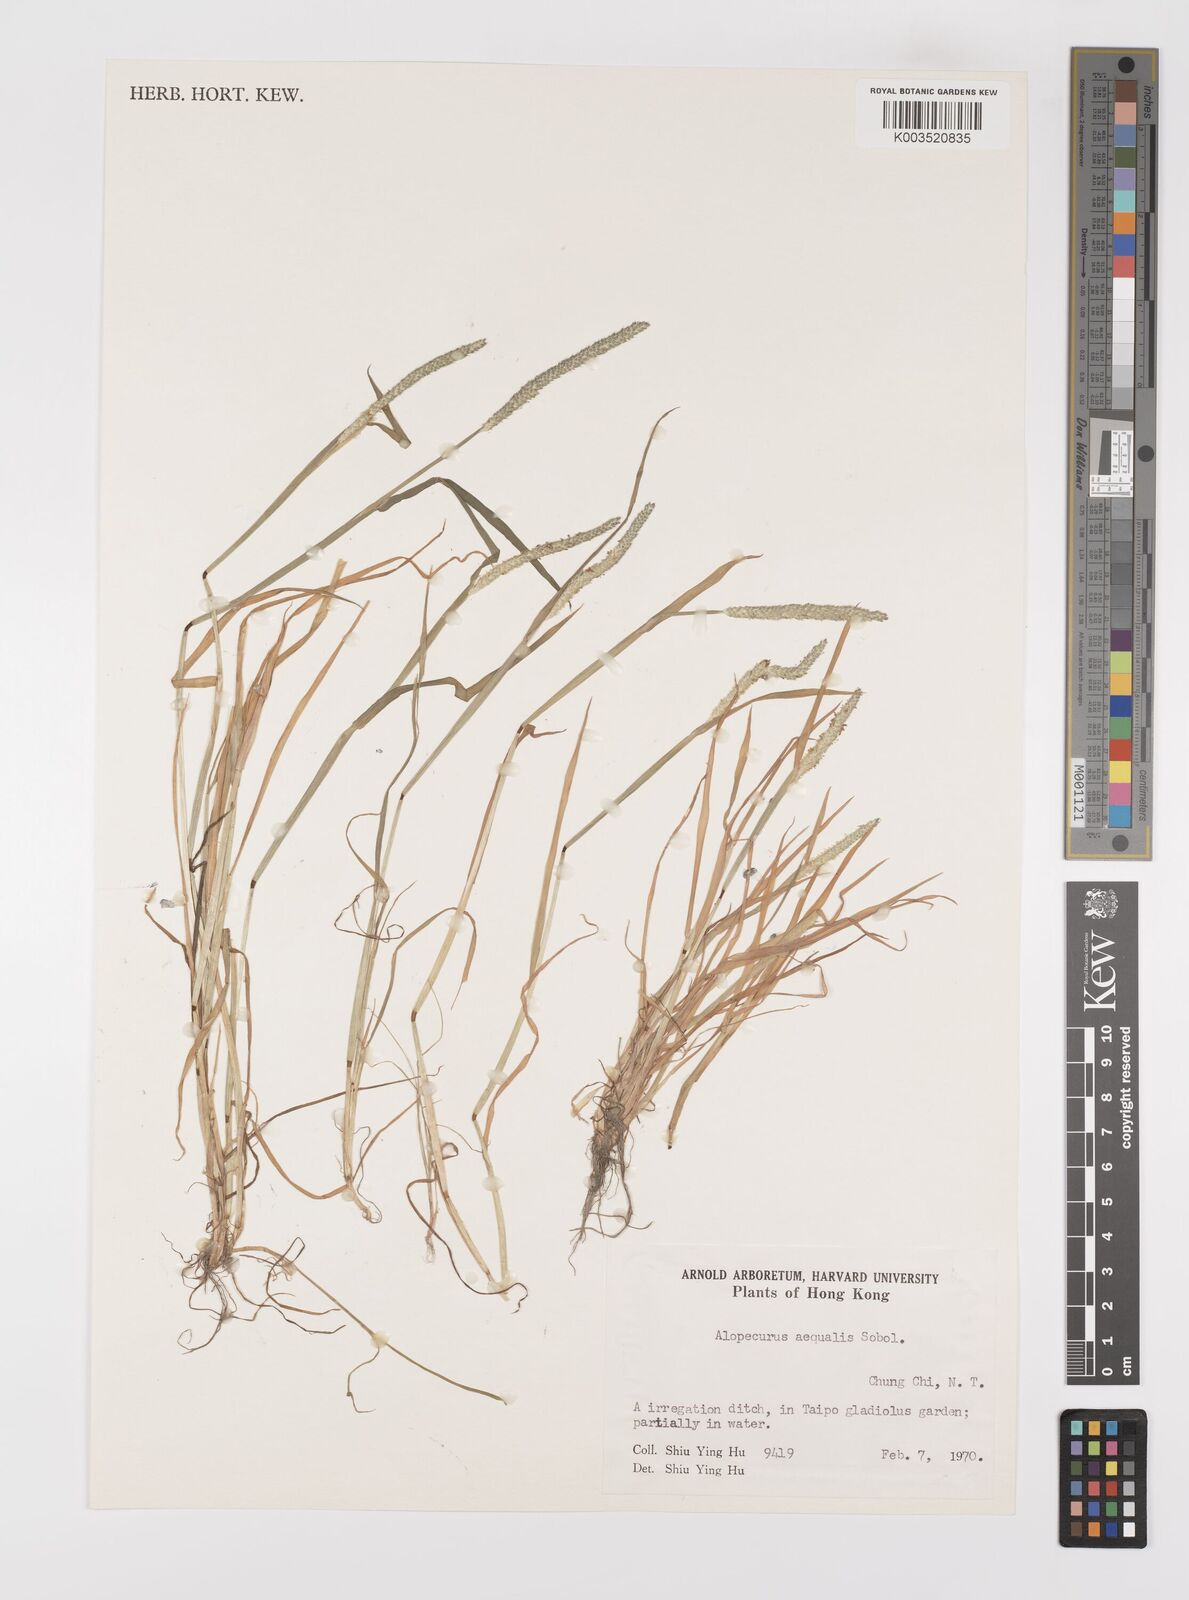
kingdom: Plantae
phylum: Tracheophyta
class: Liliopsida
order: Poales
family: Poaceae
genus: Alopecurus
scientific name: Alopecurus aequalis
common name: Orange foxtail
